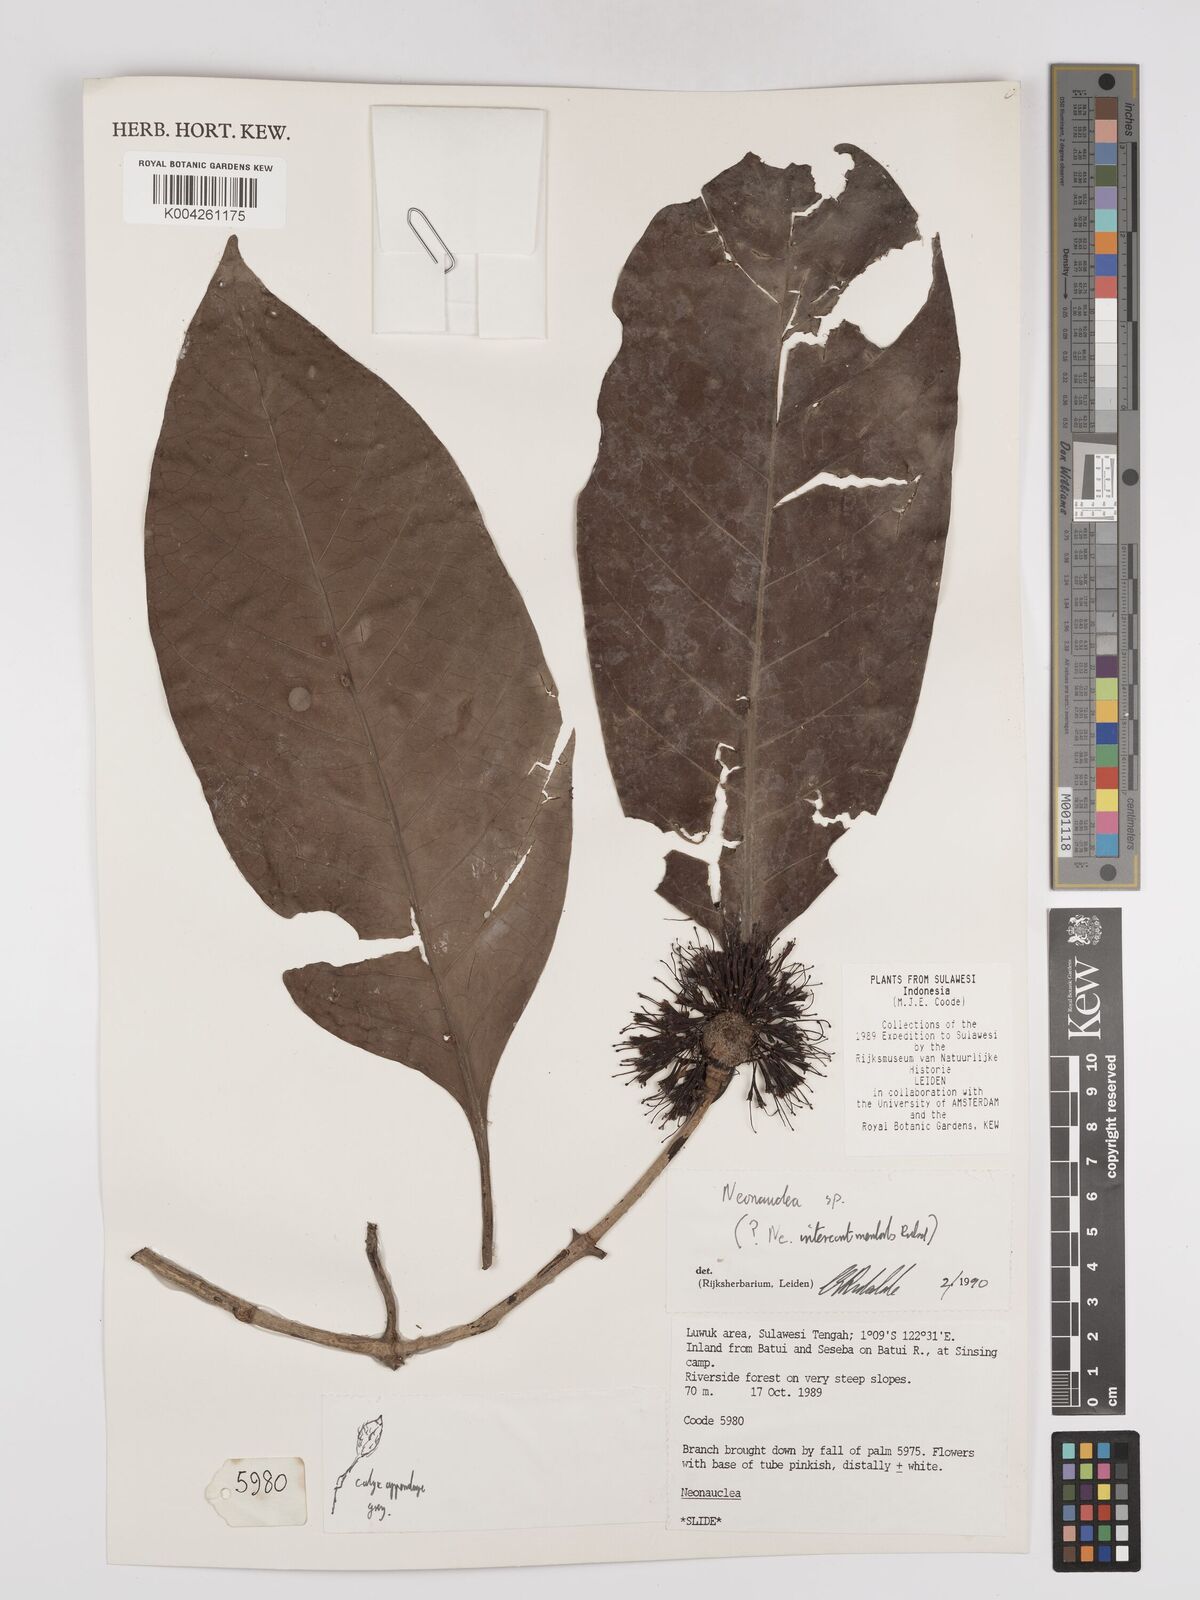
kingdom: Plantae
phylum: Tracheophyta
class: Magnoliopsida
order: Gentianales
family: Rubiaceae
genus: Neonauclea
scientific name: Neonauclea
